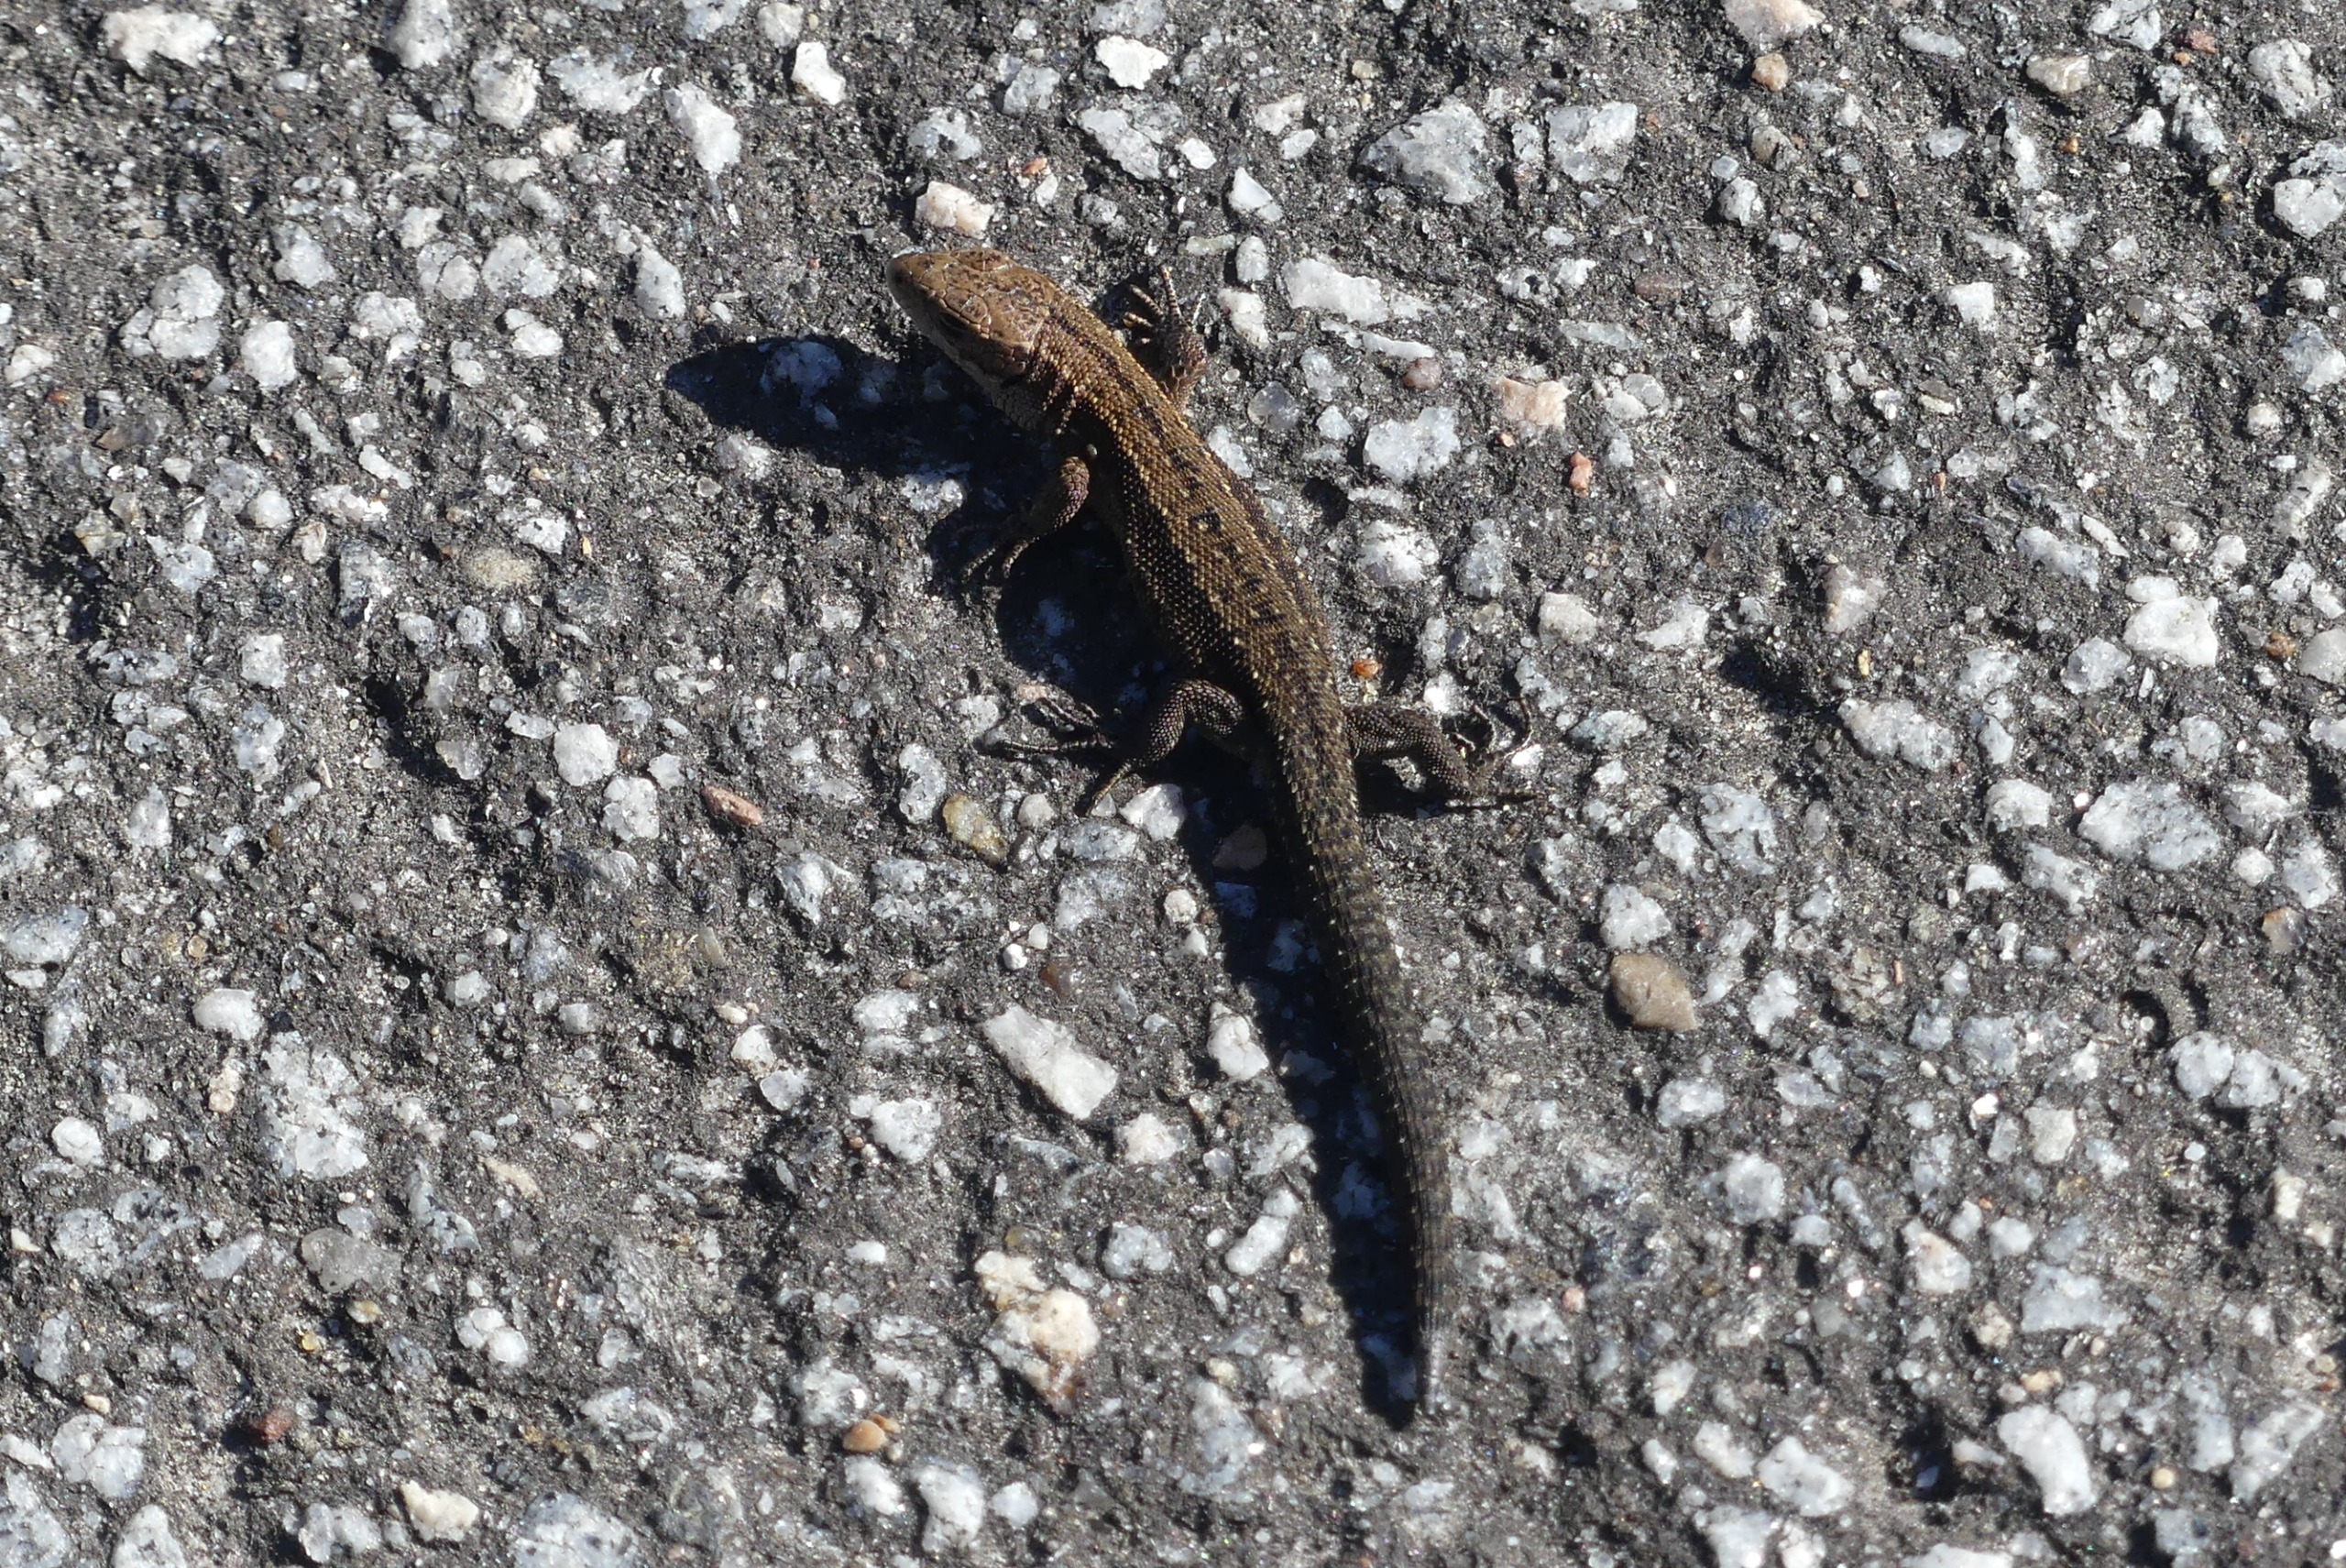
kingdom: Animalia
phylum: Chordata
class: Squamata
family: Lacertidae
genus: Zootoca
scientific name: Zootoca vivipara
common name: Skovfirben
